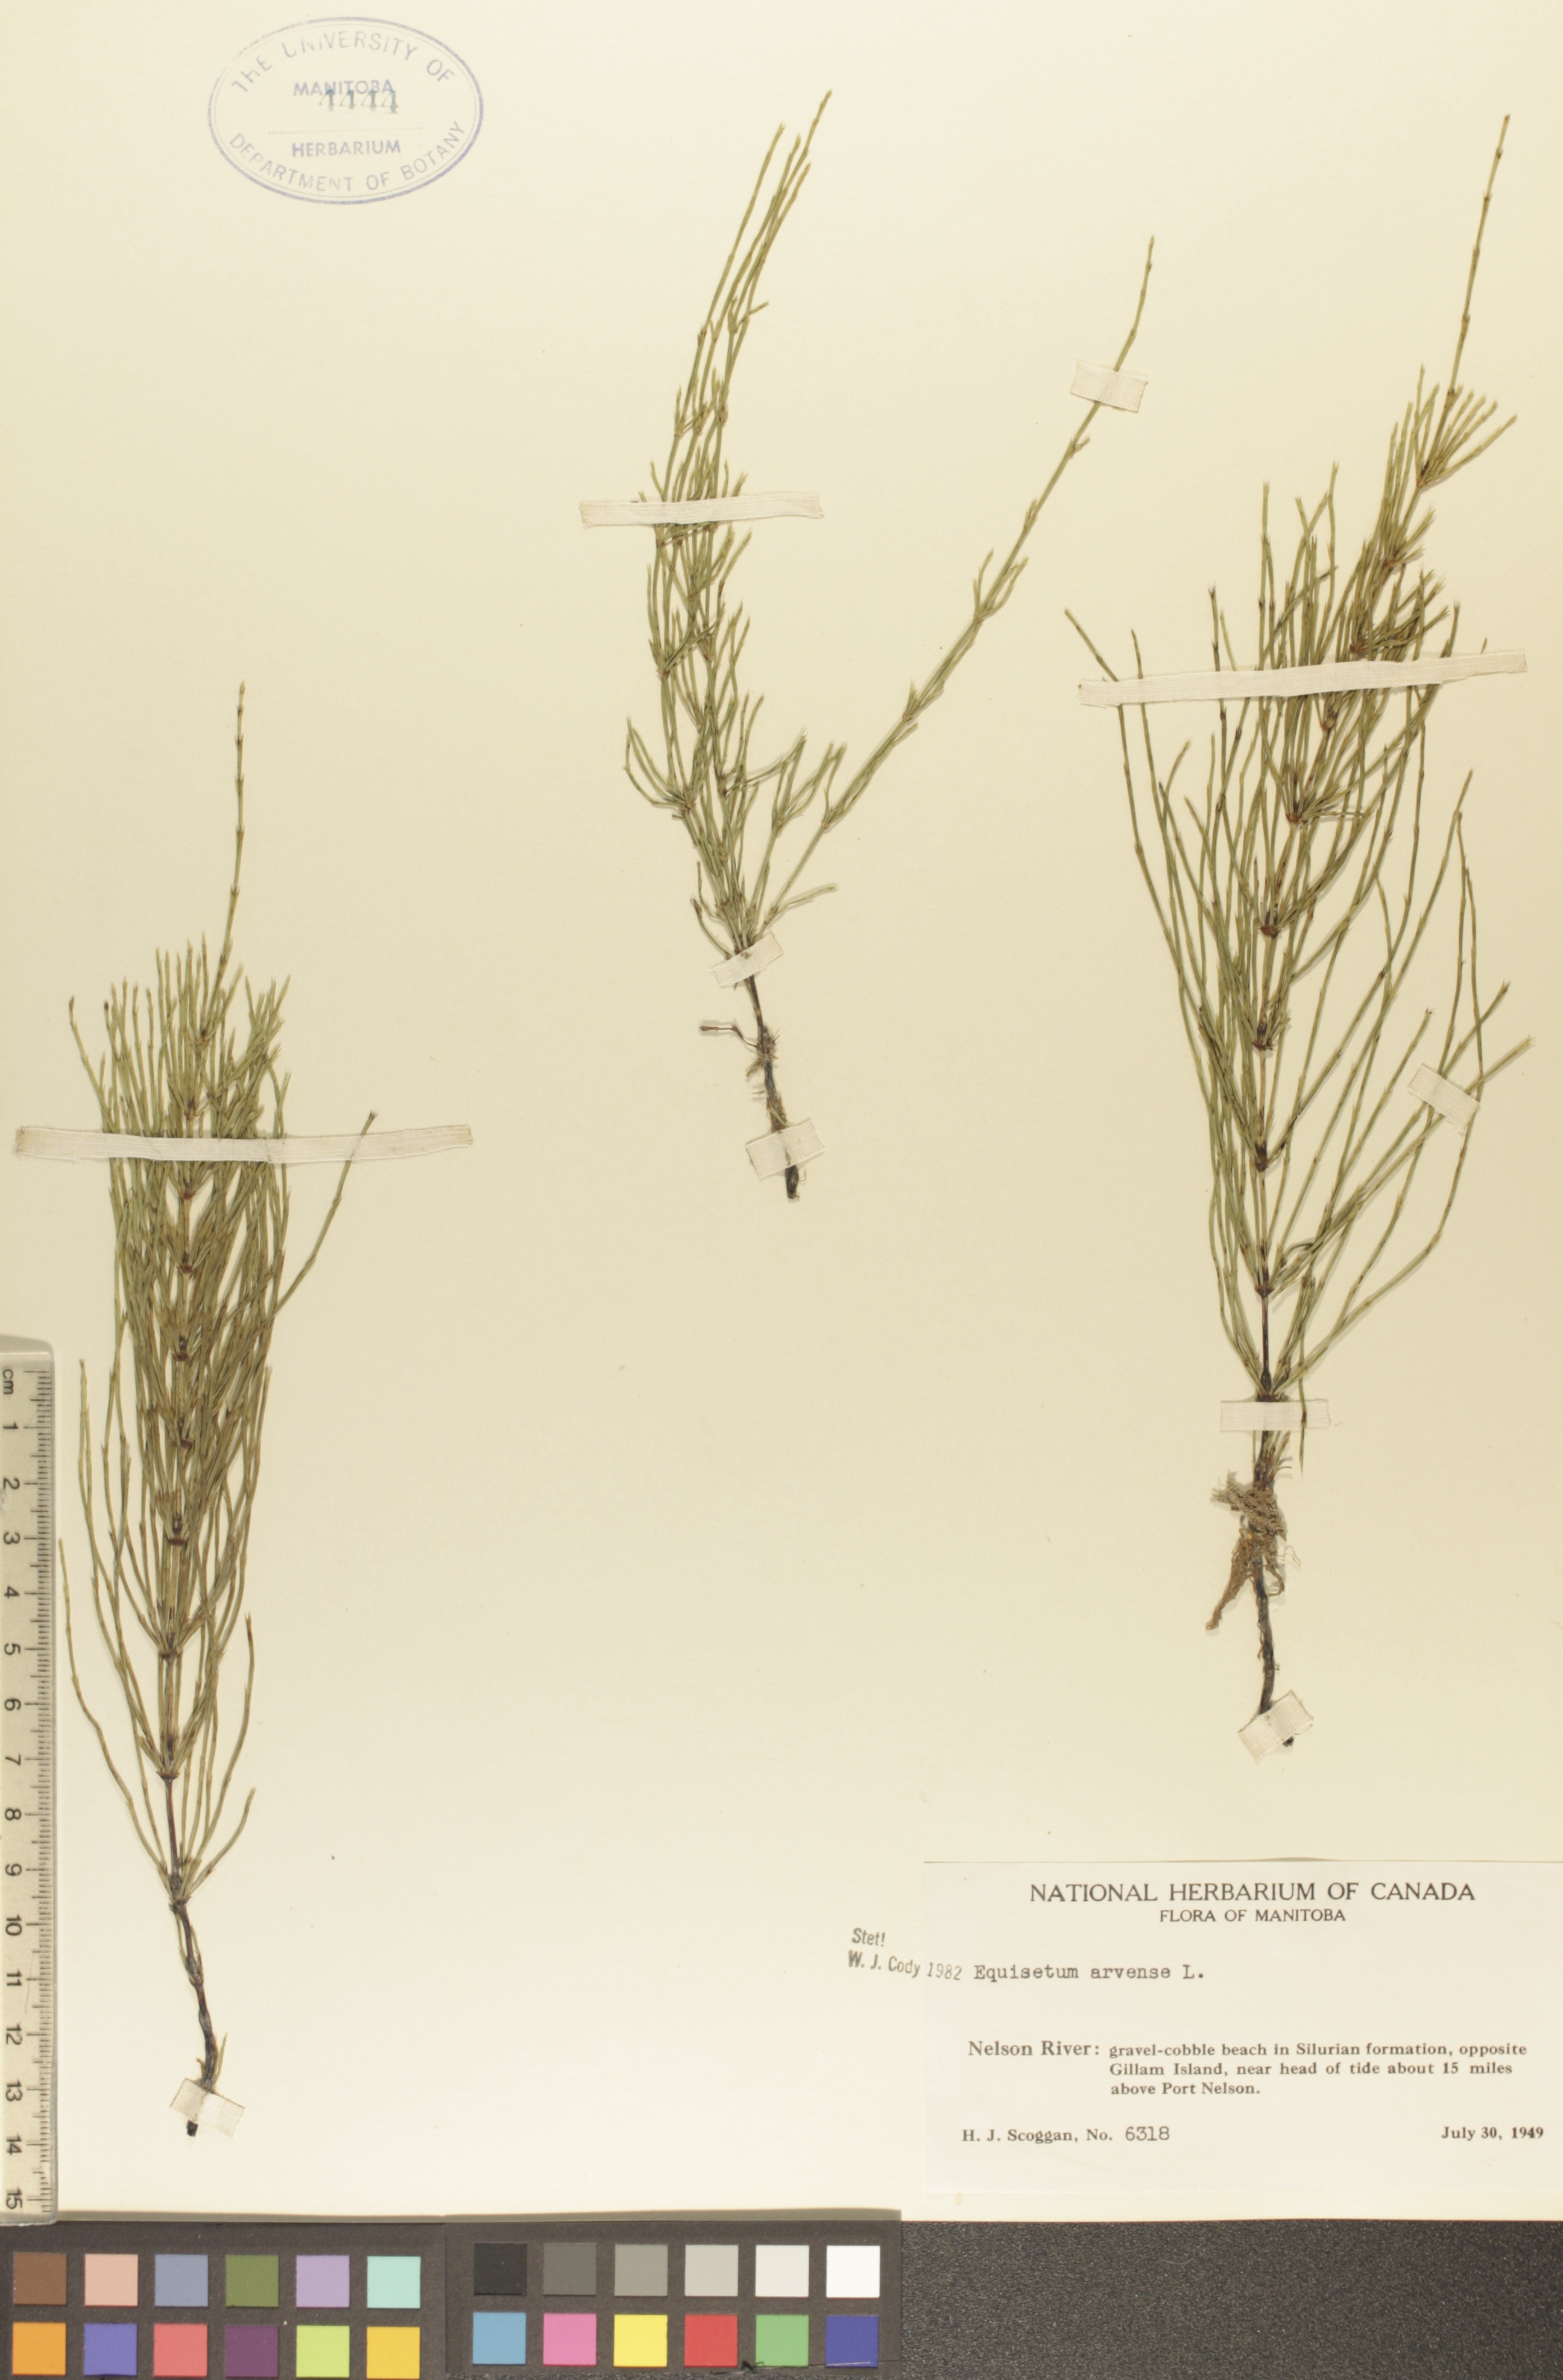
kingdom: Plantae
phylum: Tracheophyta
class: Polypodiopsida
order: Equisetales
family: Equisetaceae
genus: Equisetum
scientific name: Equisetum arvense
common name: Field horsetail
